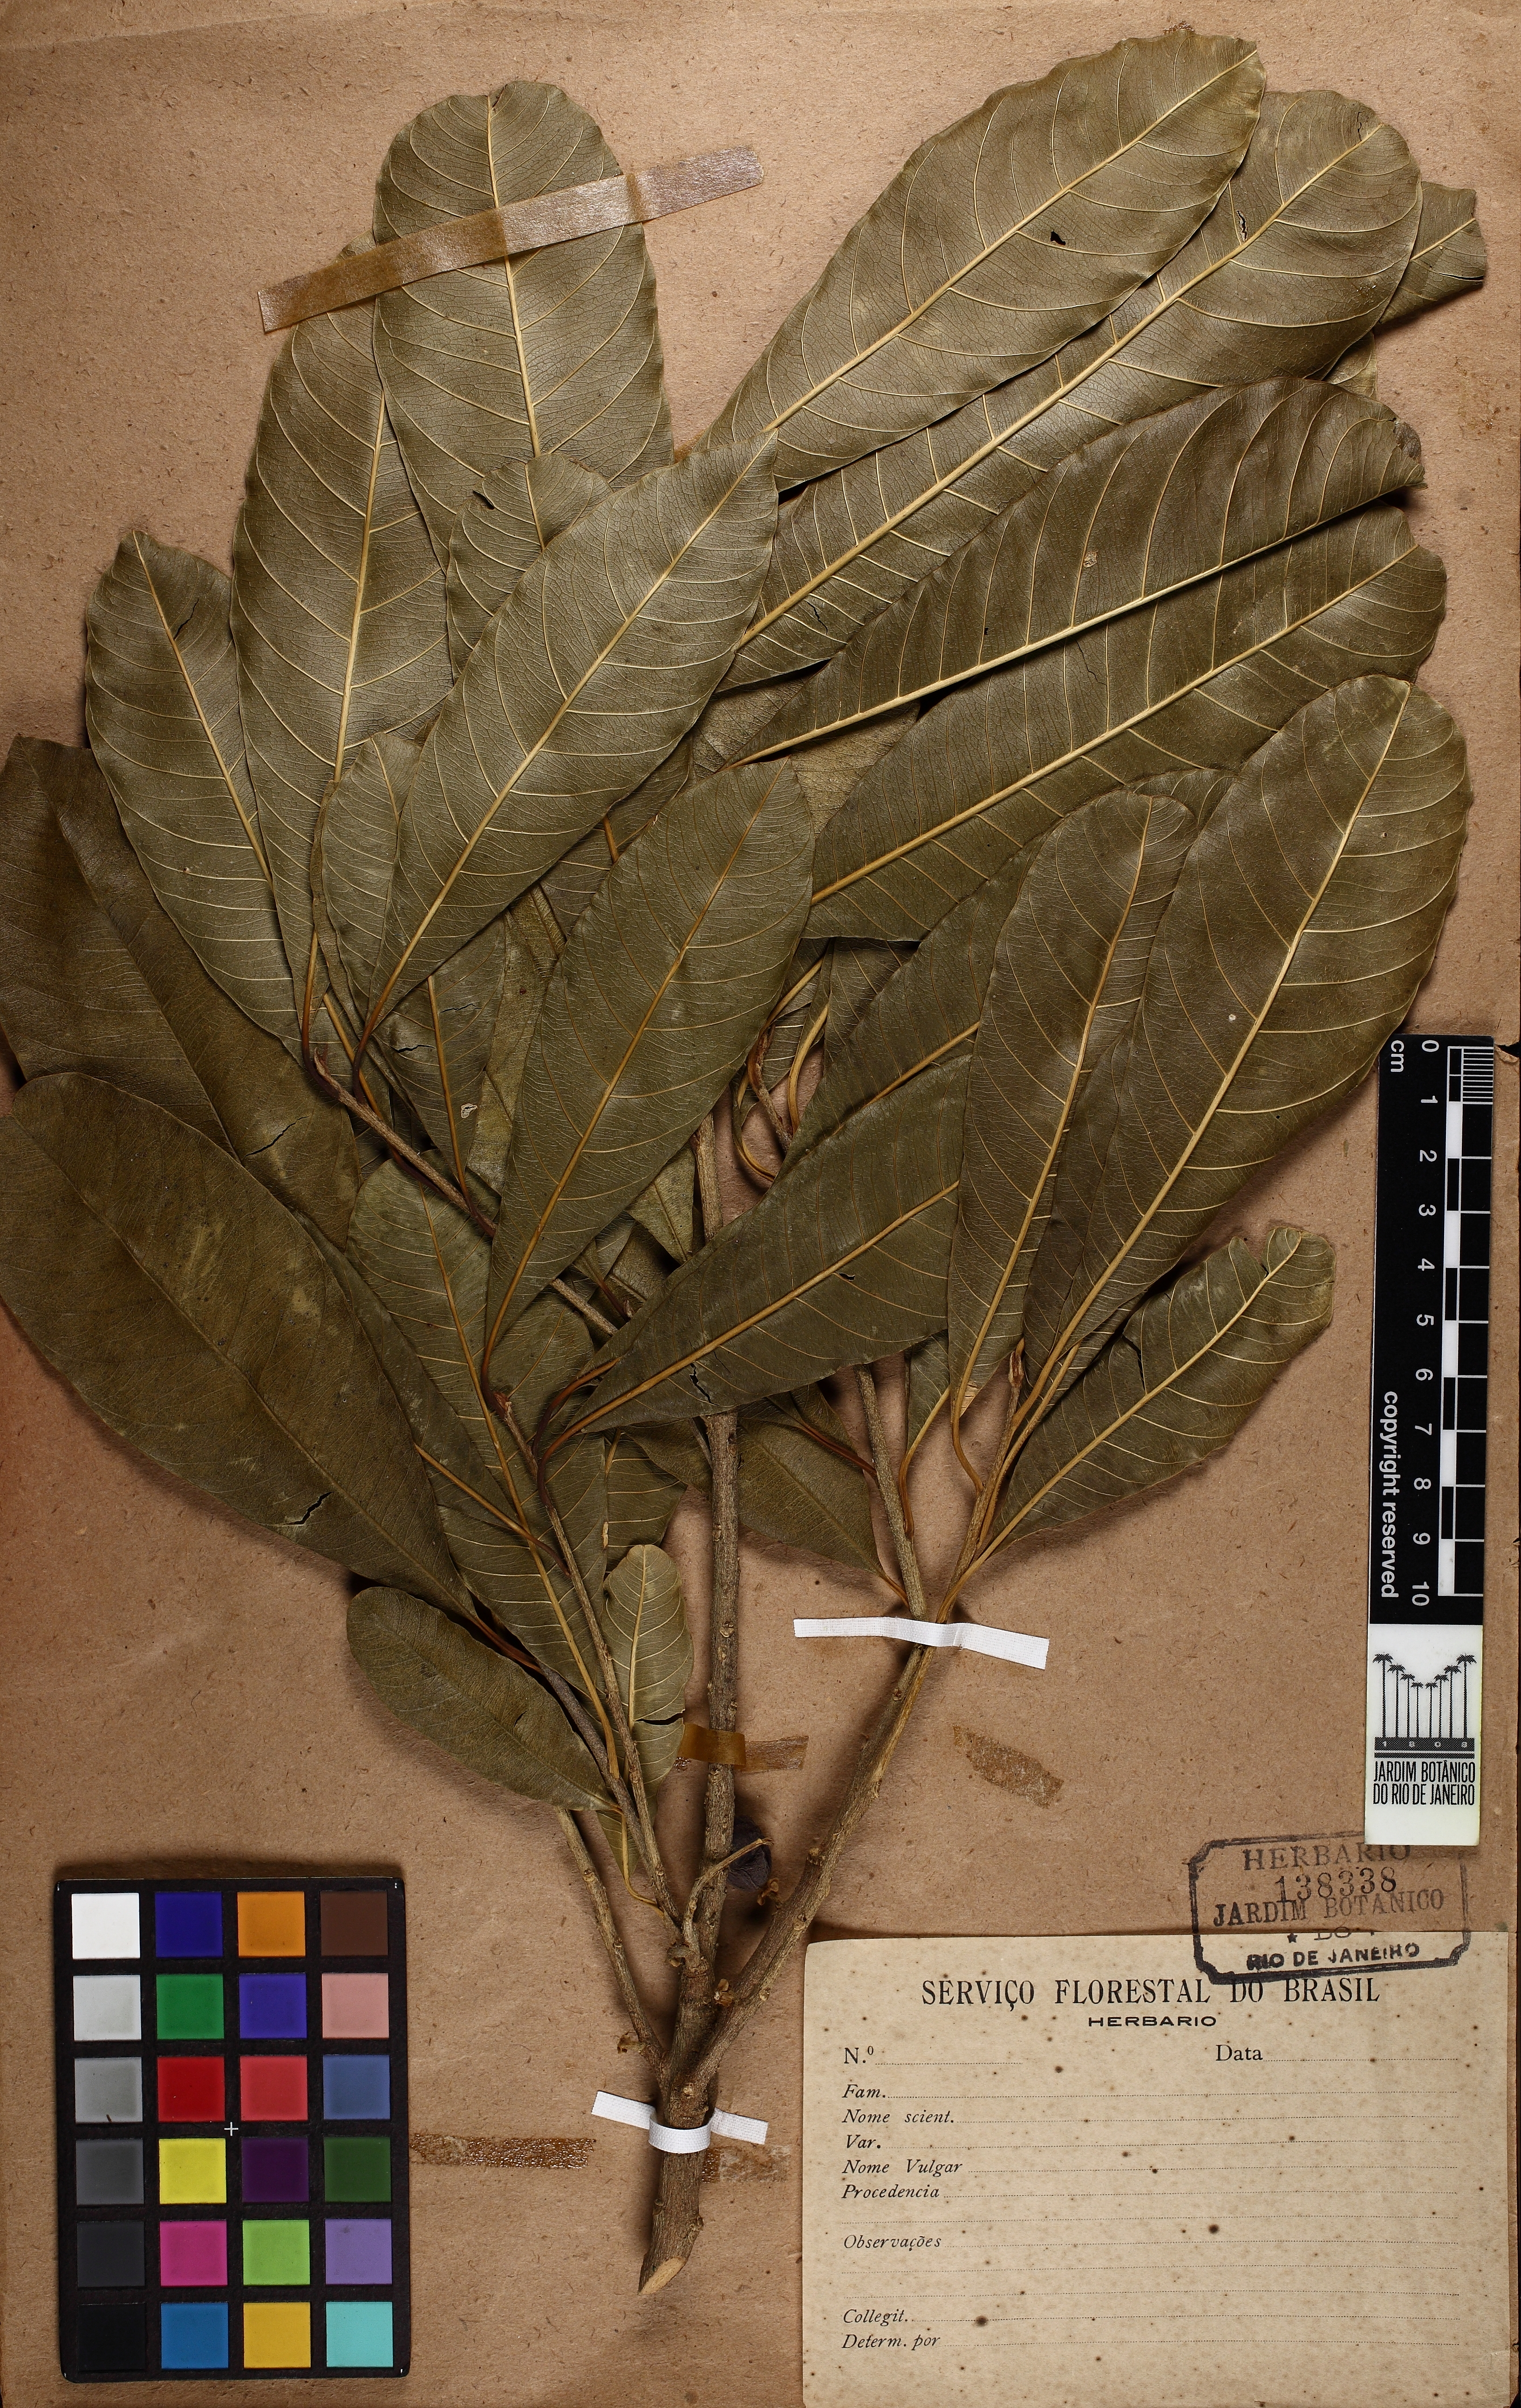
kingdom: Plantae
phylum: Tracheophyta
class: Magnoliopsida
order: Ericales
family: Sapotaceae
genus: Chrysophyllum
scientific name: Chrysophyllum gonocarpum
